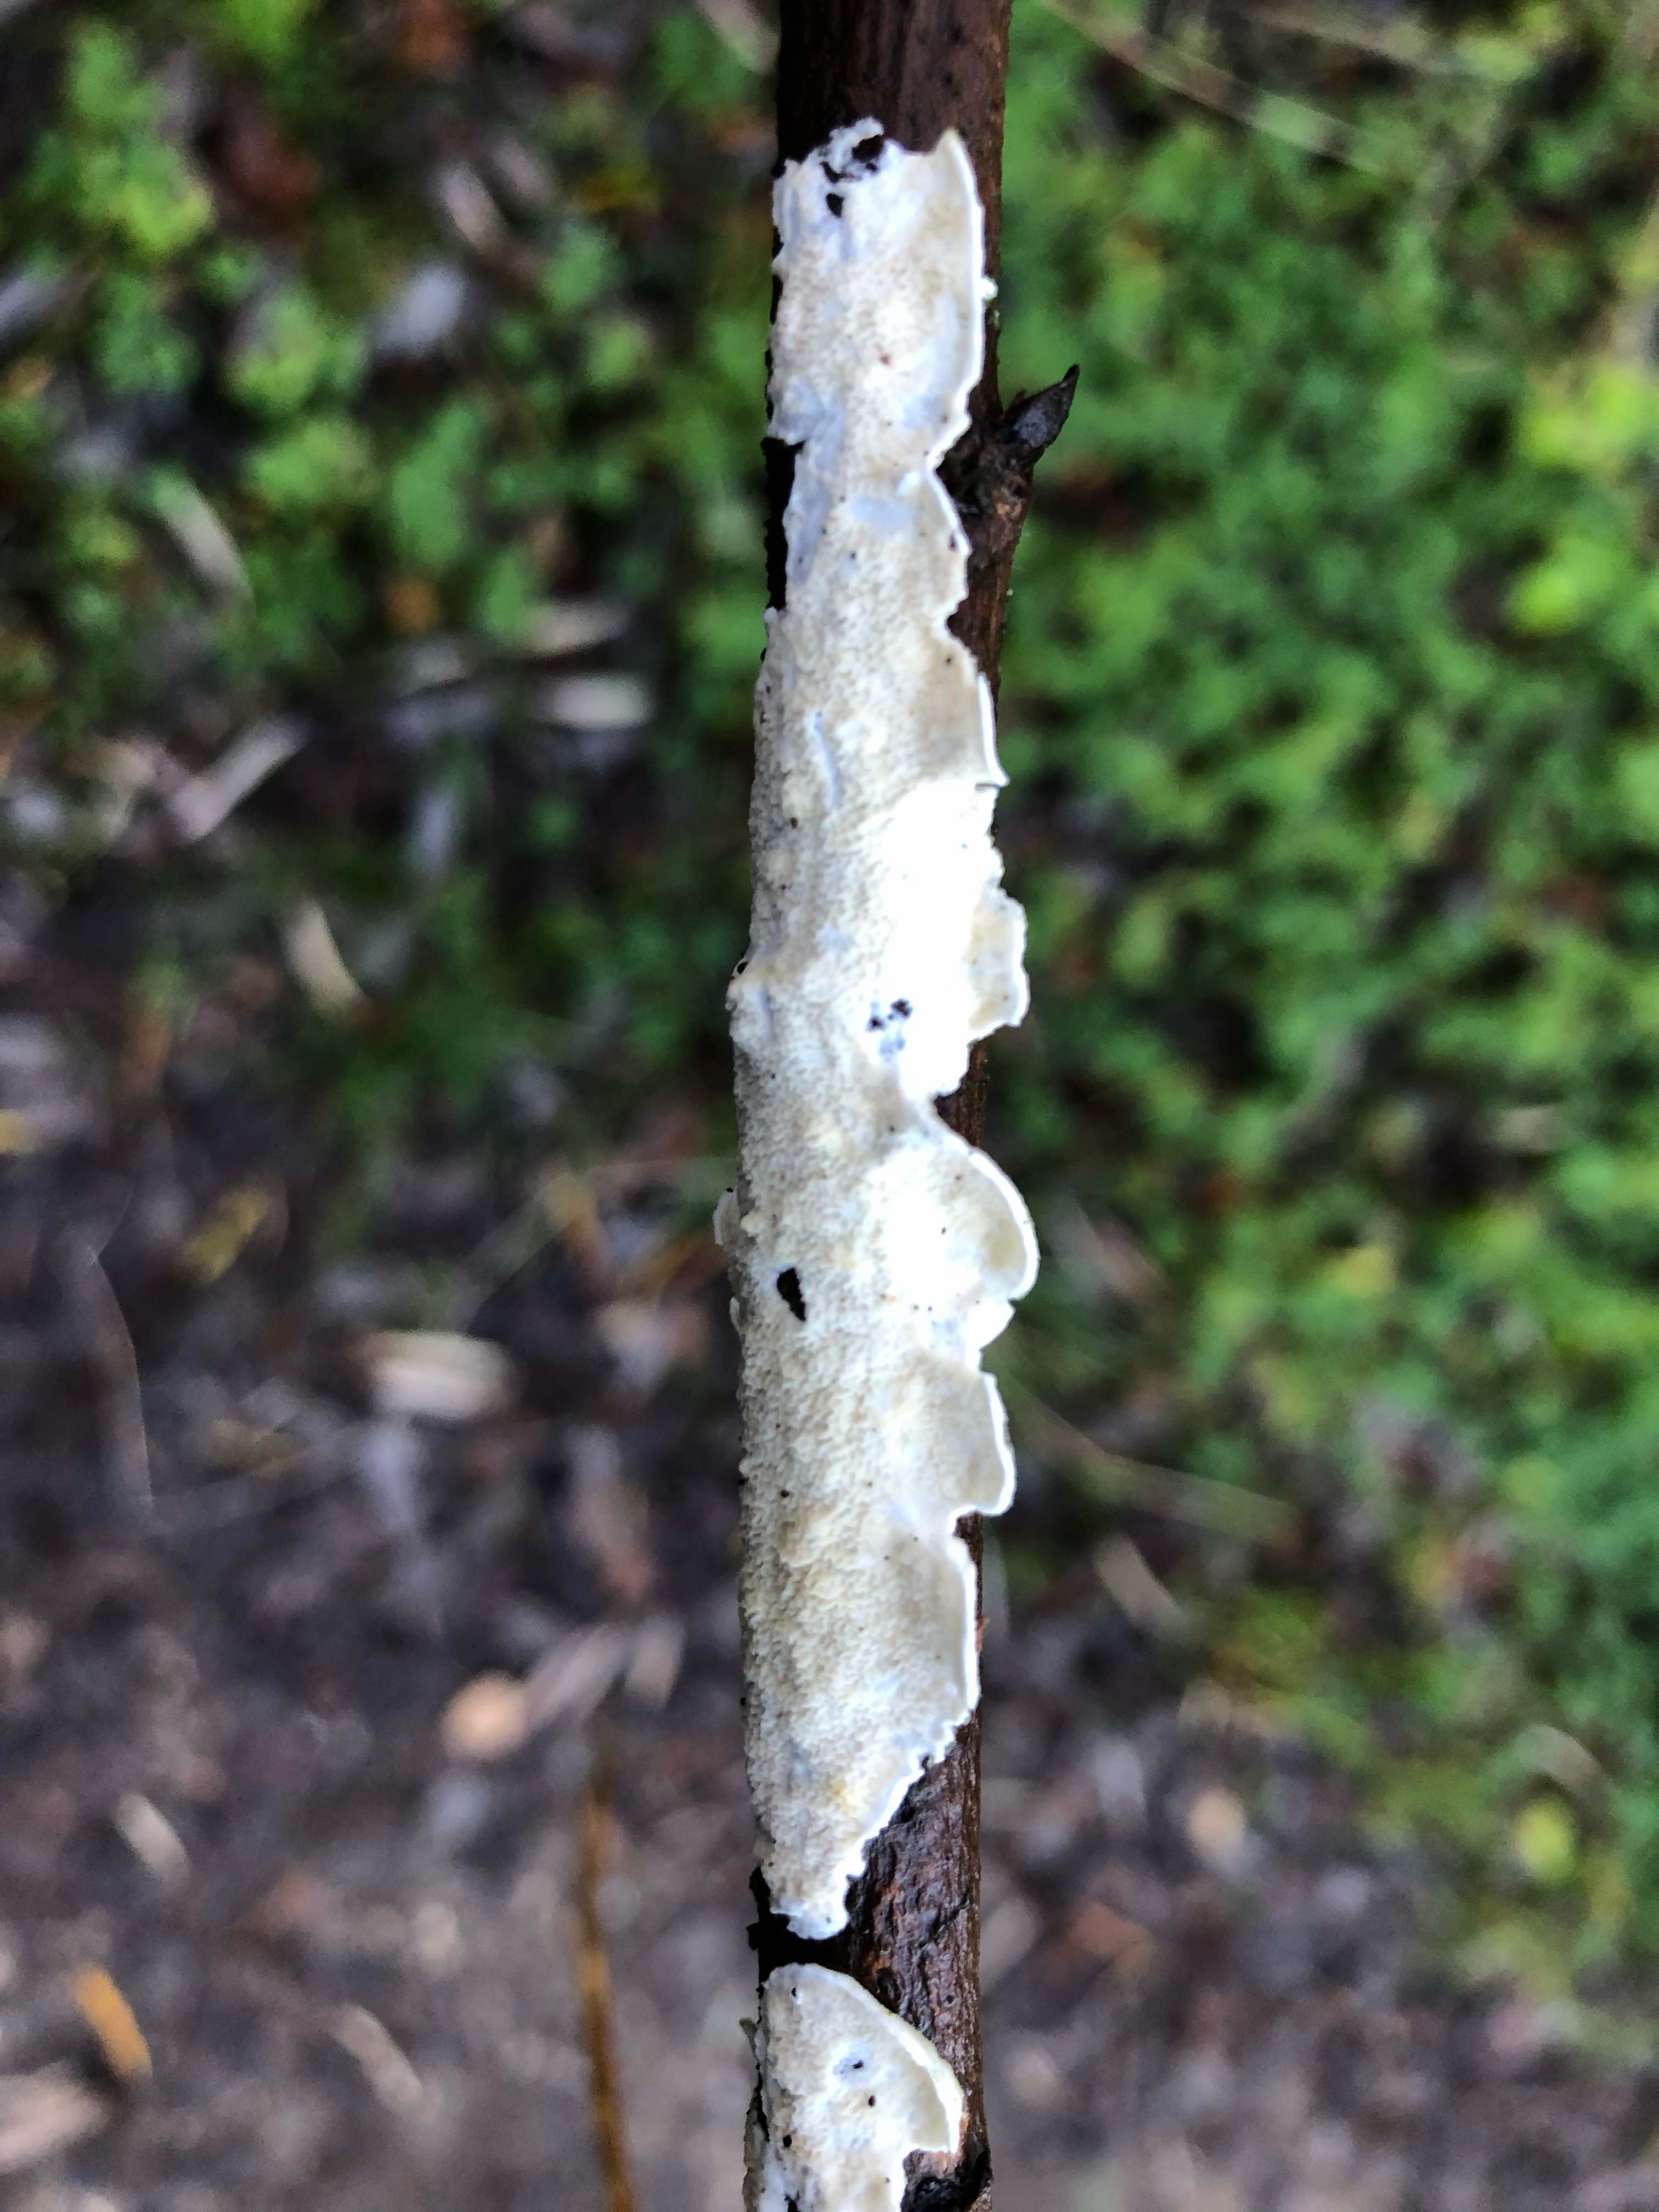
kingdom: Fungi
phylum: Basidiomycota
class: Agaricomycetes
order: Polyporales
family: Irpicaceae
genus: Byssomerulius
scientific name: Byssomerulius corium
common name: læder-åresvamp
